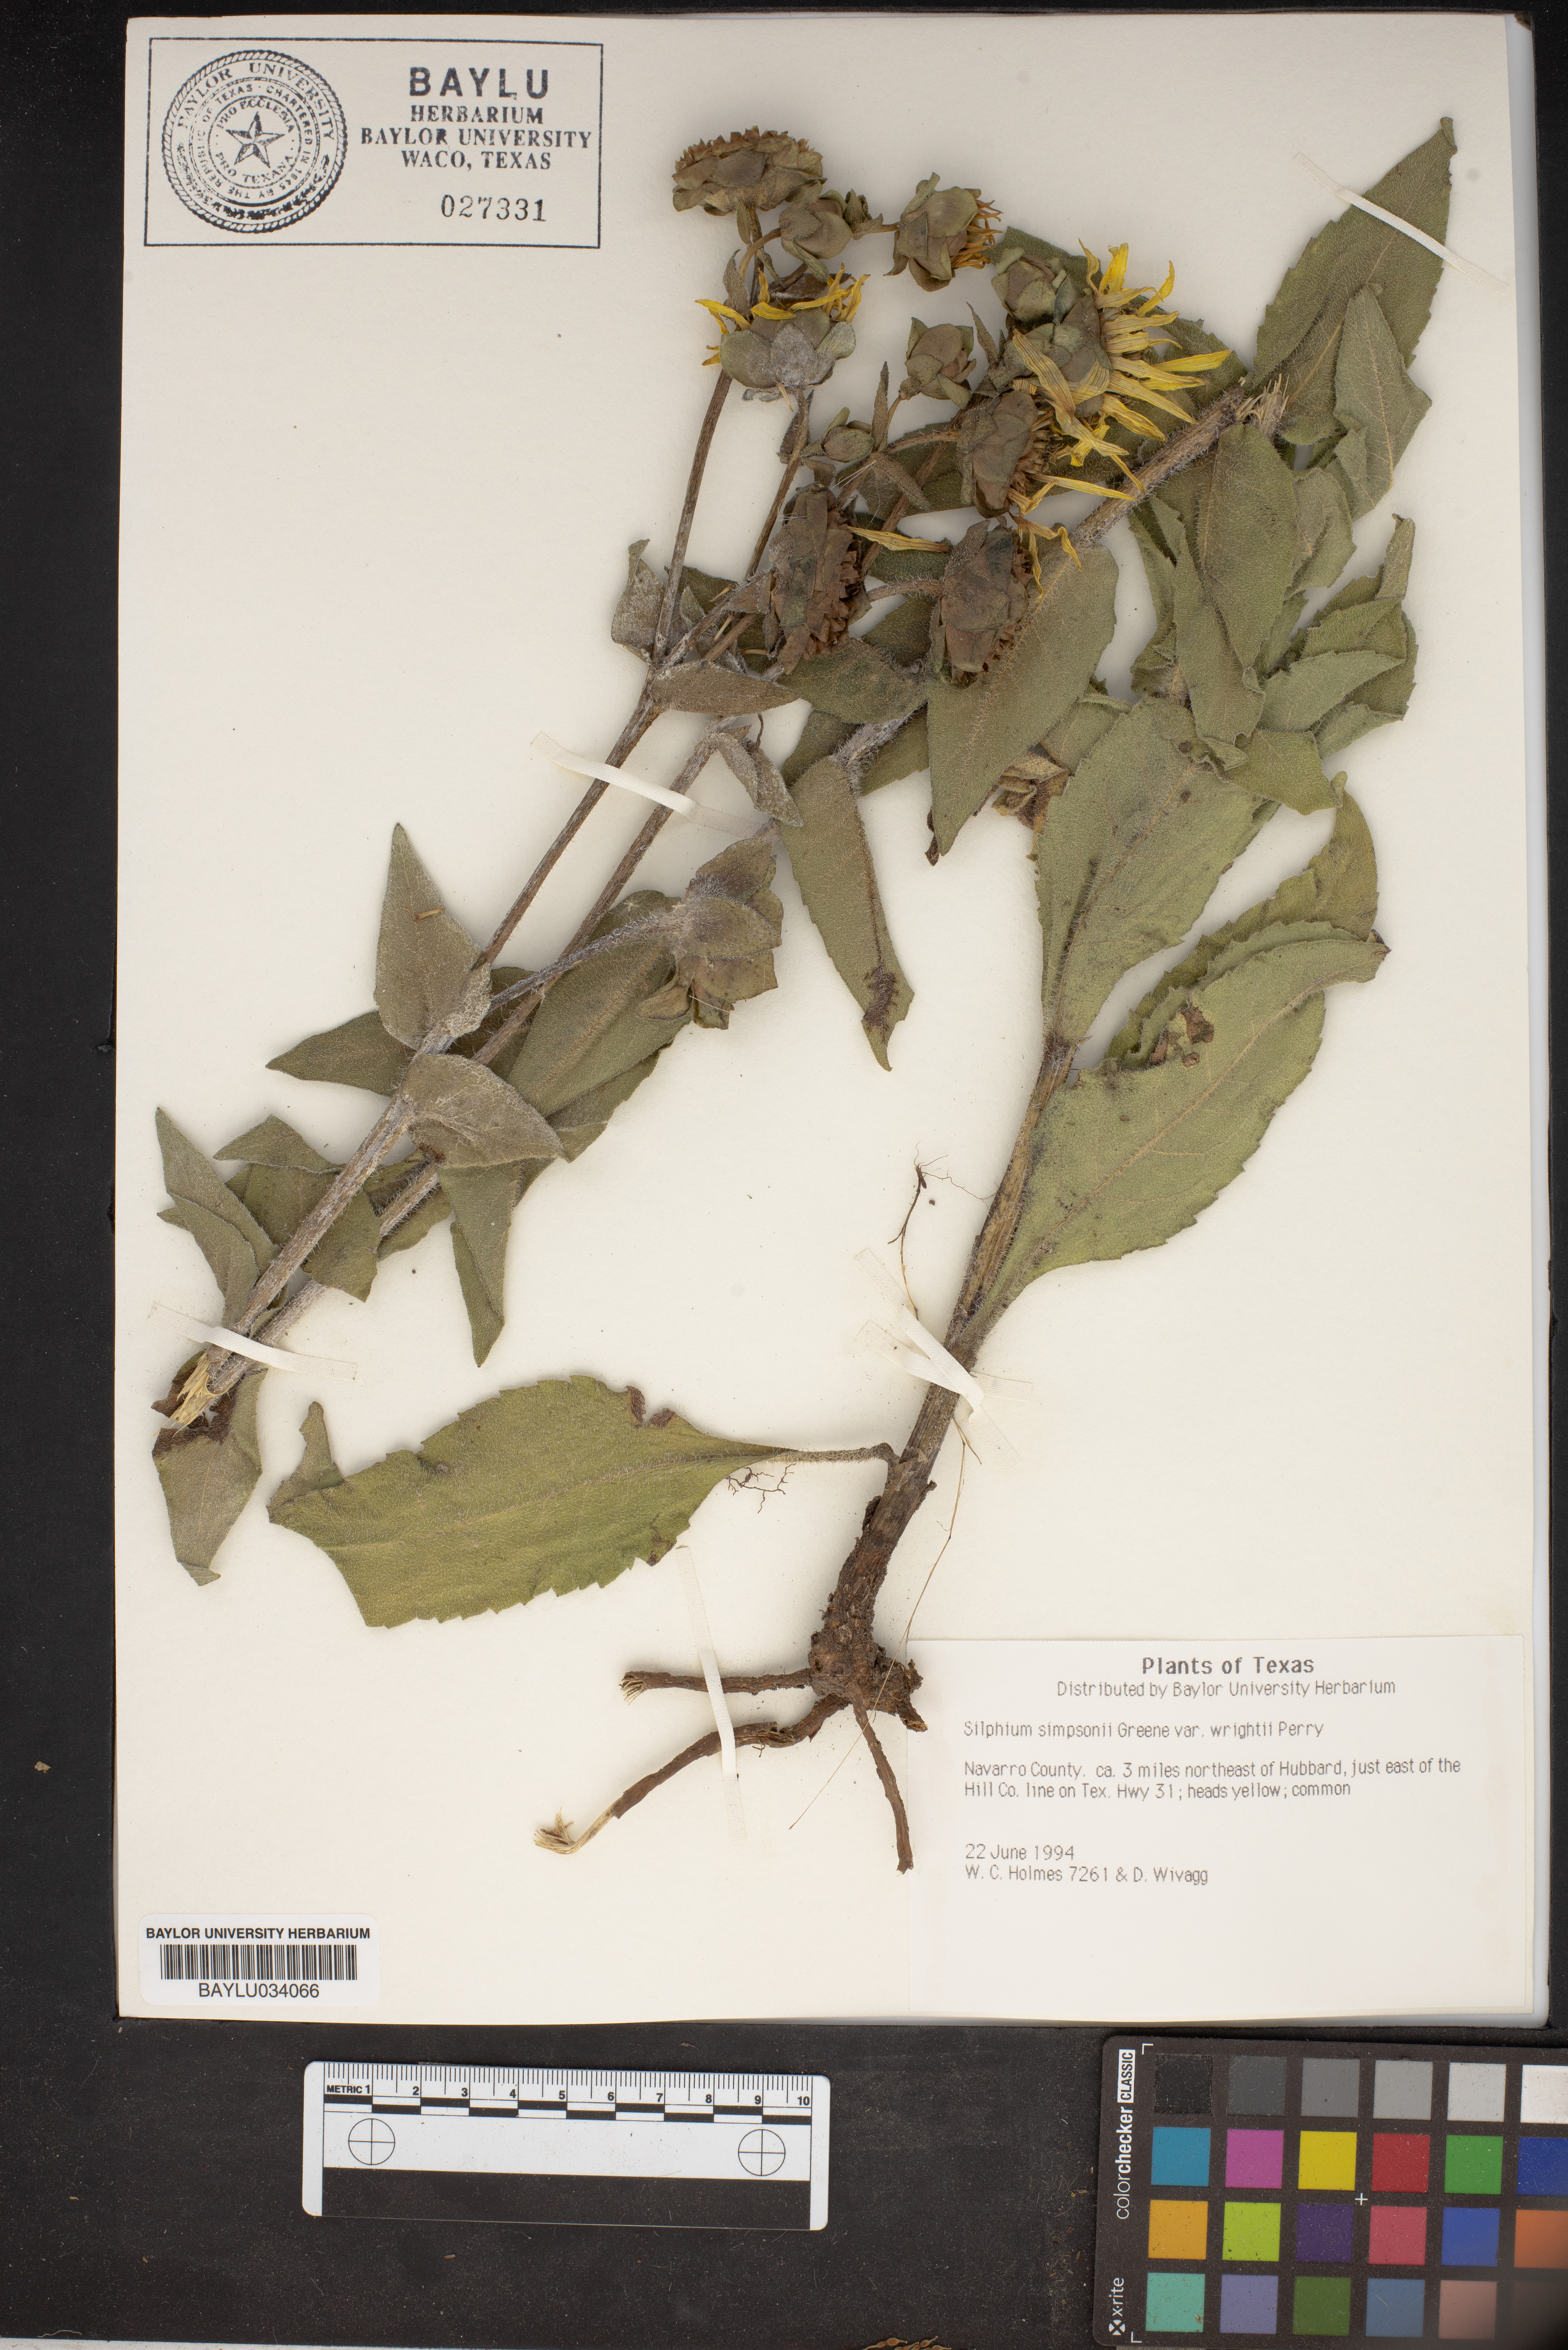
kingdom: Plantae
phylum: Tracheophyta
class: Magnoliopsida
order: Asterales
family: Asteraceae
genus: Silphium
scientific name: Silphium asteriscus
